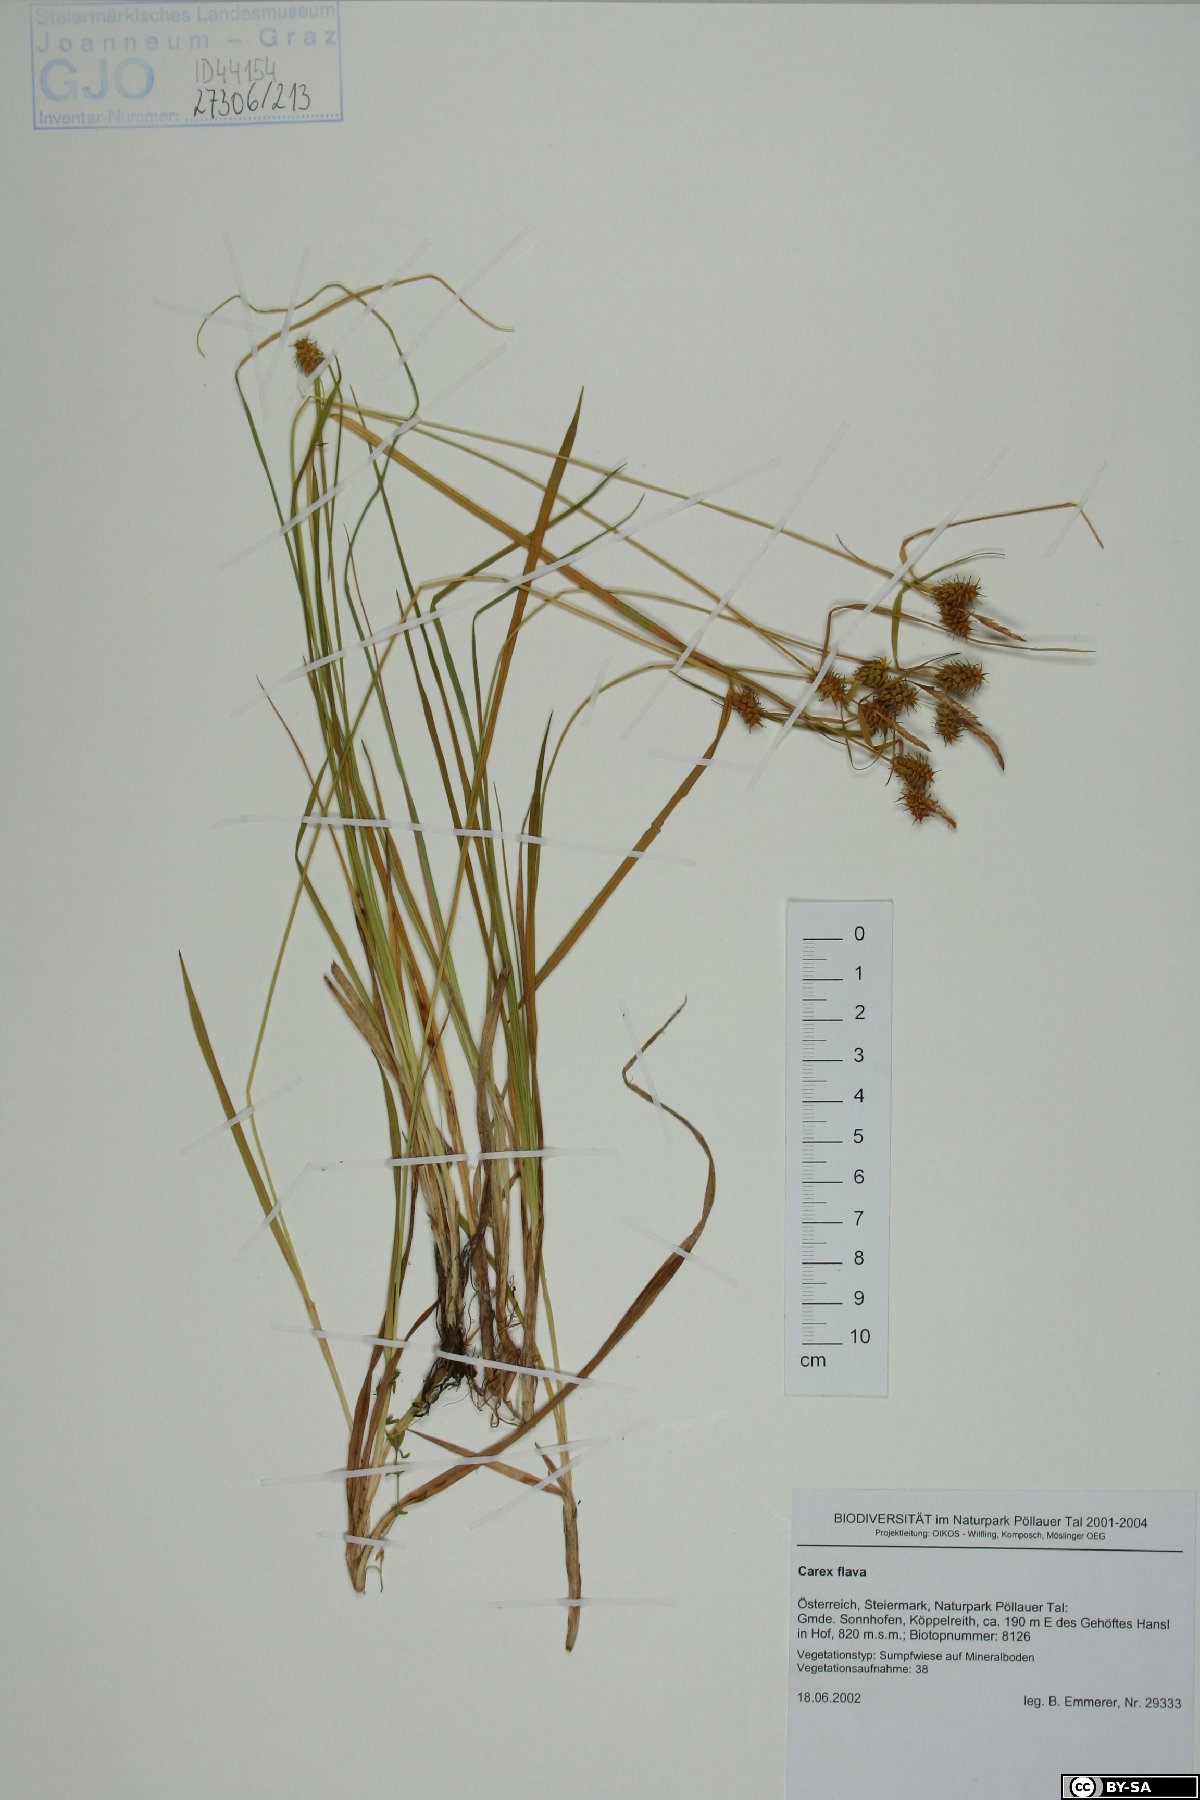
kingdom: Plantae
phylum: Tracheophyta
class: Liliopsida
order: Poales
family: Cyperaceae
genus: Carex
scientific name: Carex flava
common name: Large yellow-sedge
